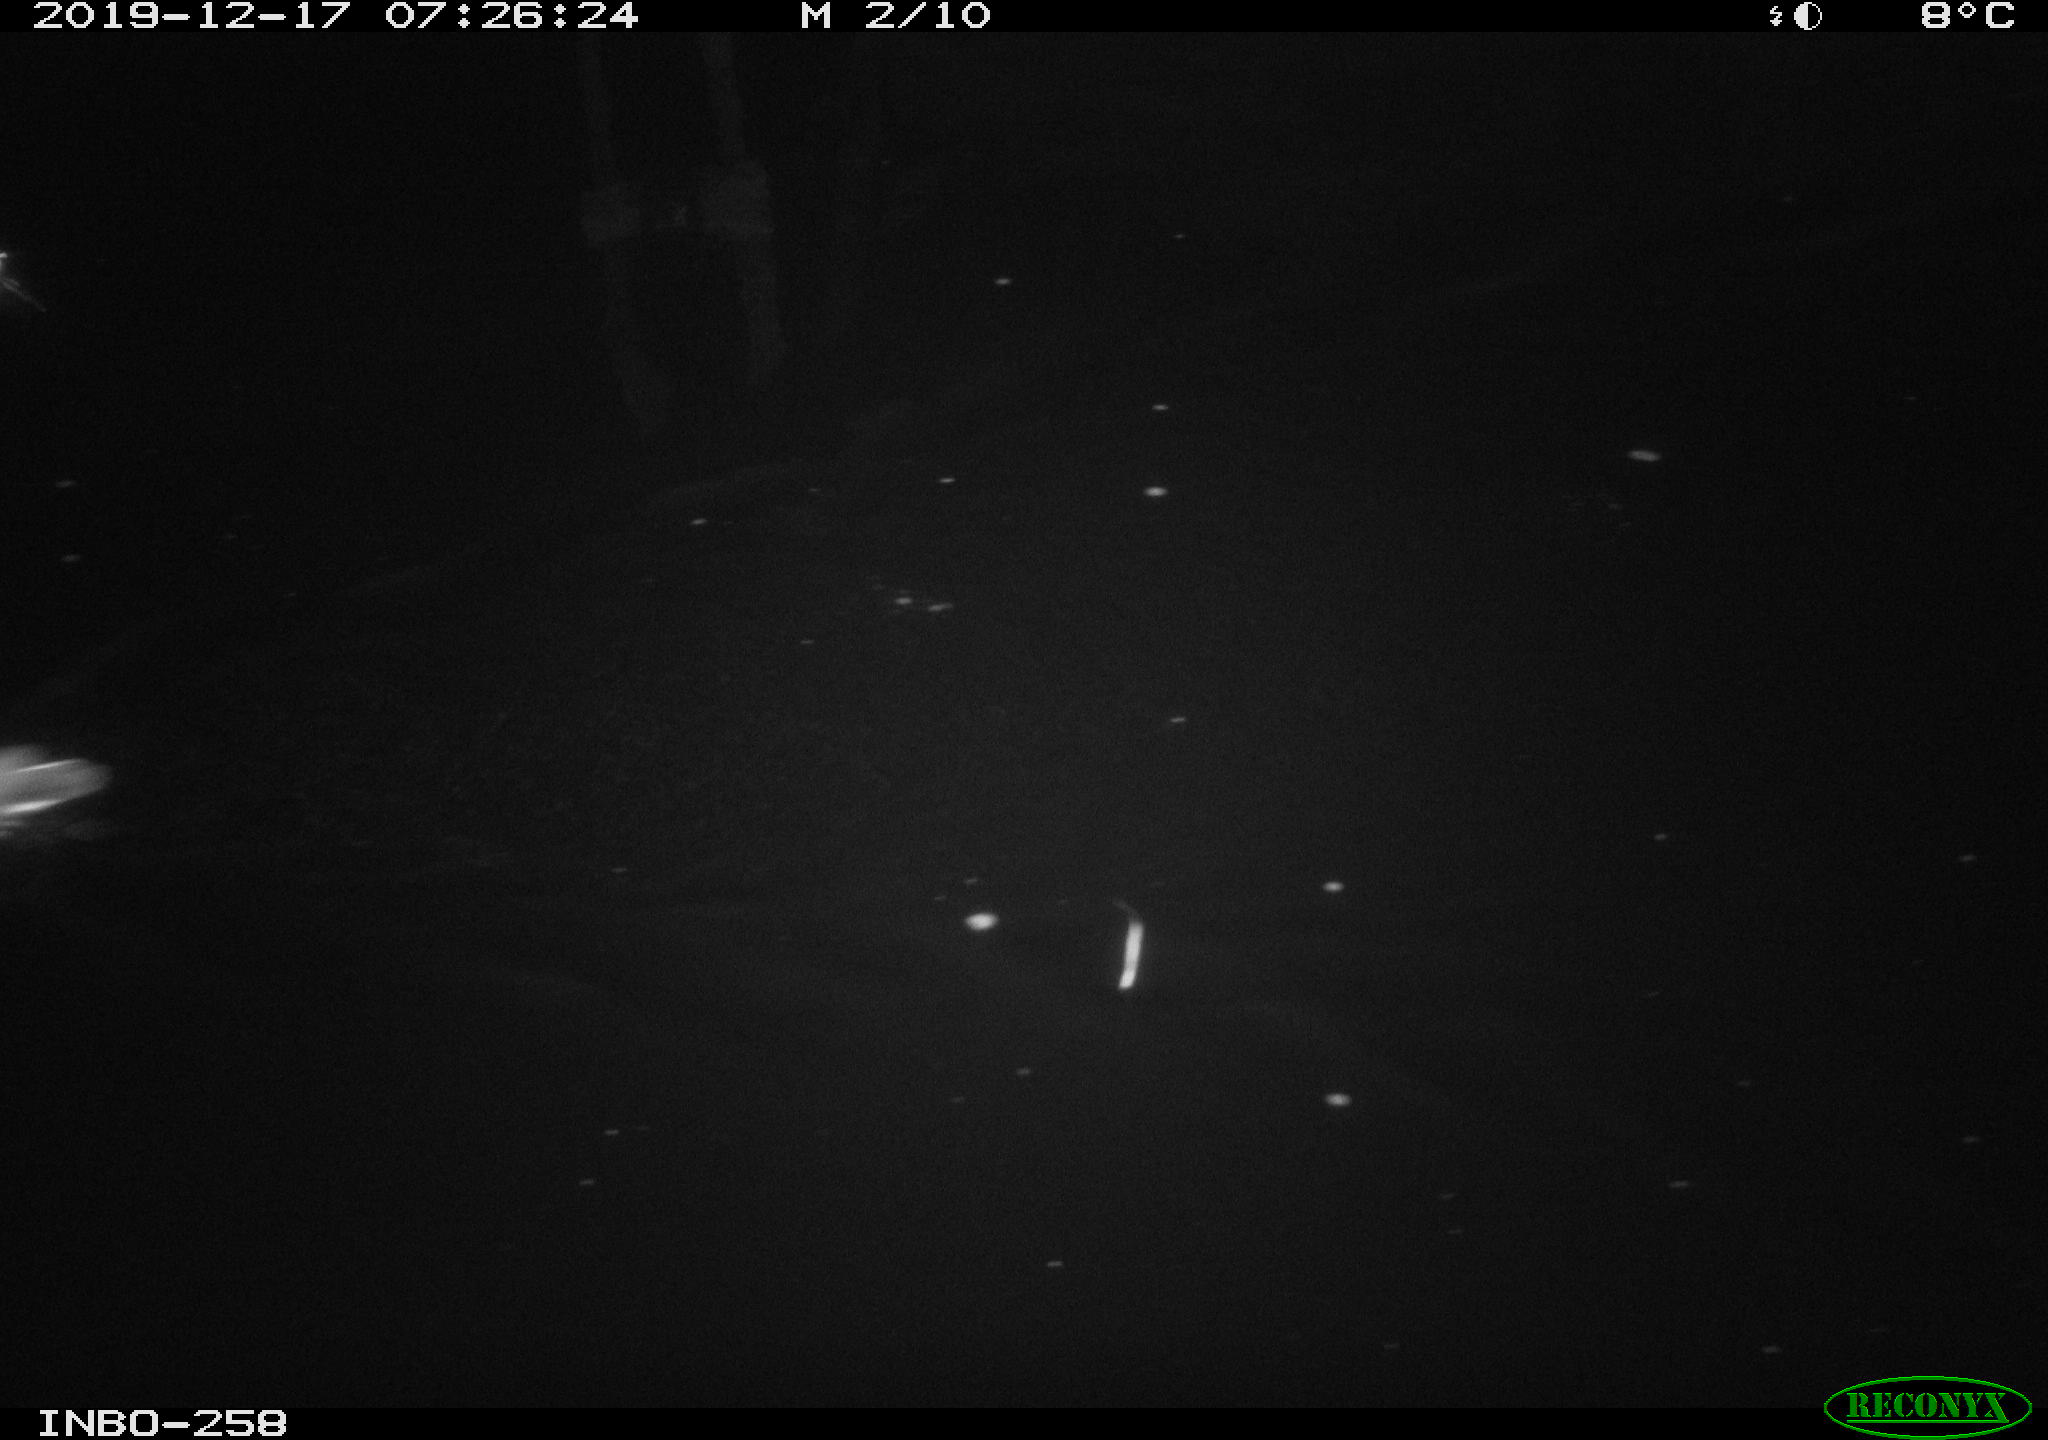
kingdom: Animalia
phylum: Chordata
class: Aves
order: Gruiformes
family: Rallidae
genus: Gallinula
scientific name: Gallinula chloropus
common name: Common moorhen
